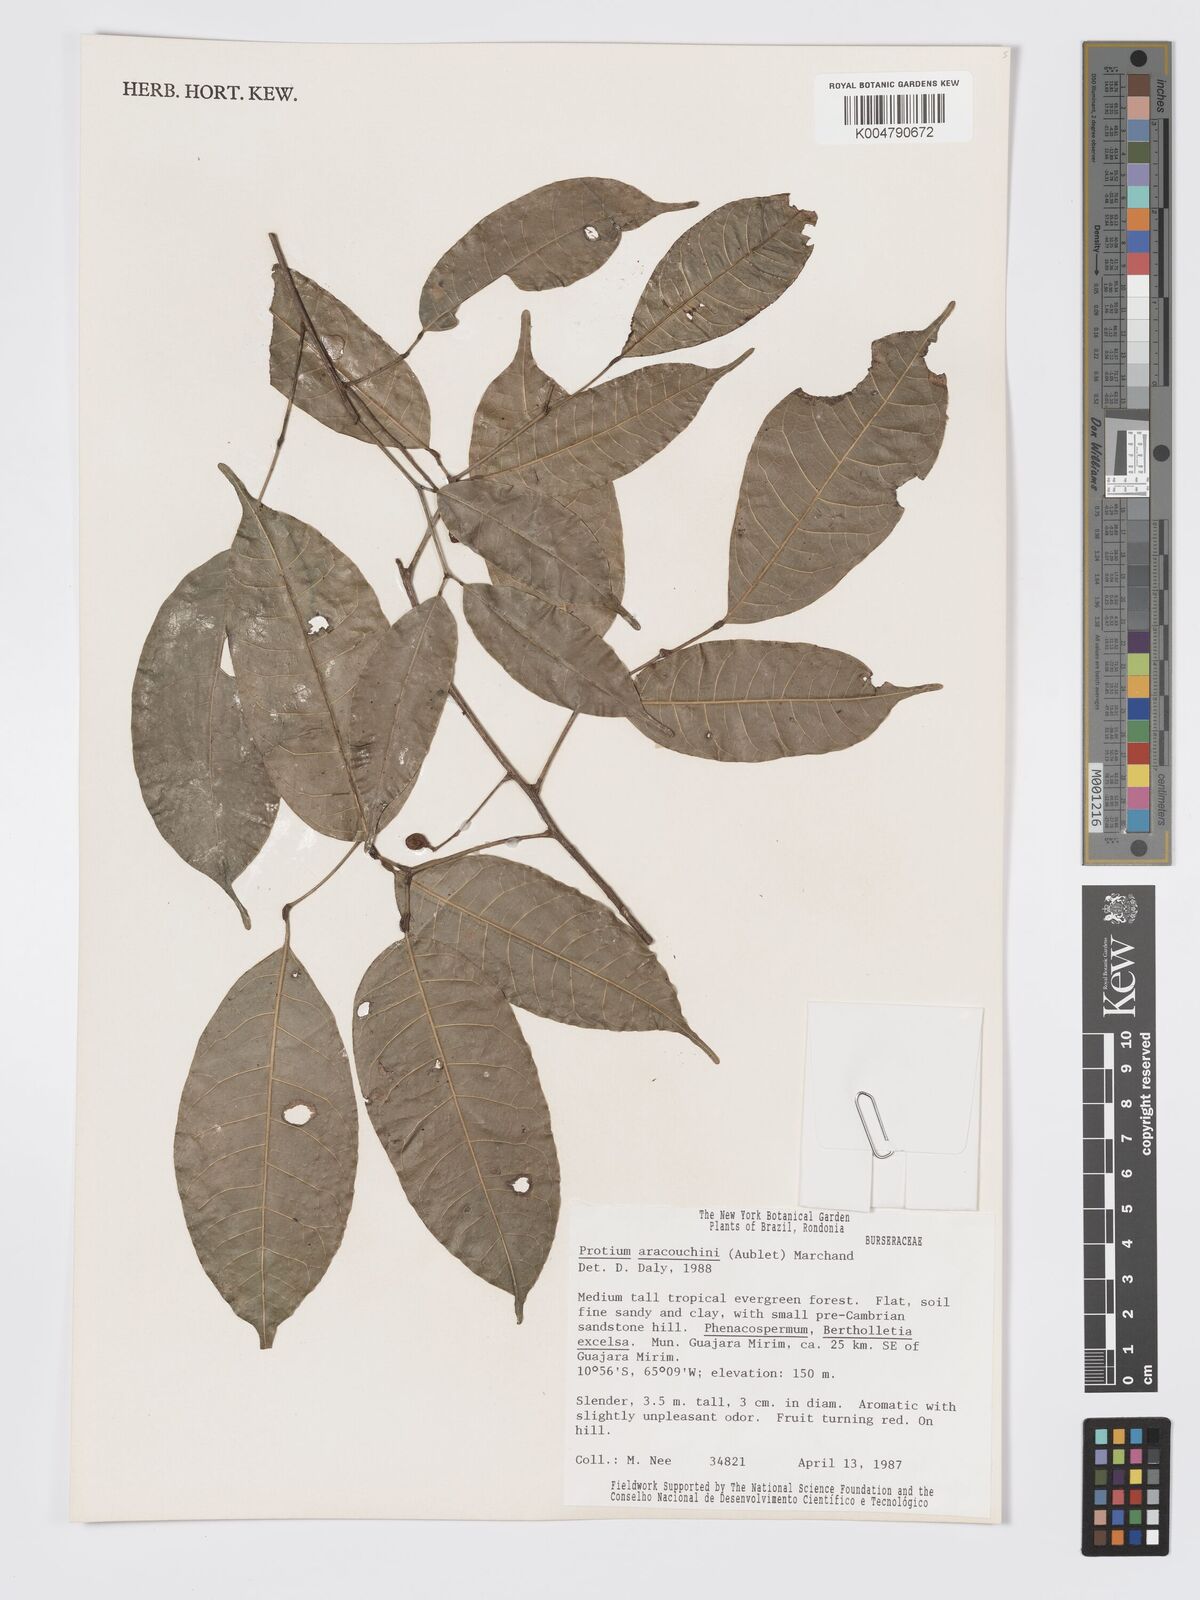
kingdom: Plantae
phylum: Tracheophyta
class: Magnoliopsida
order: Sapindales
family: Burseraceae
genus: Protium
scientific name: Protium aracouchini
